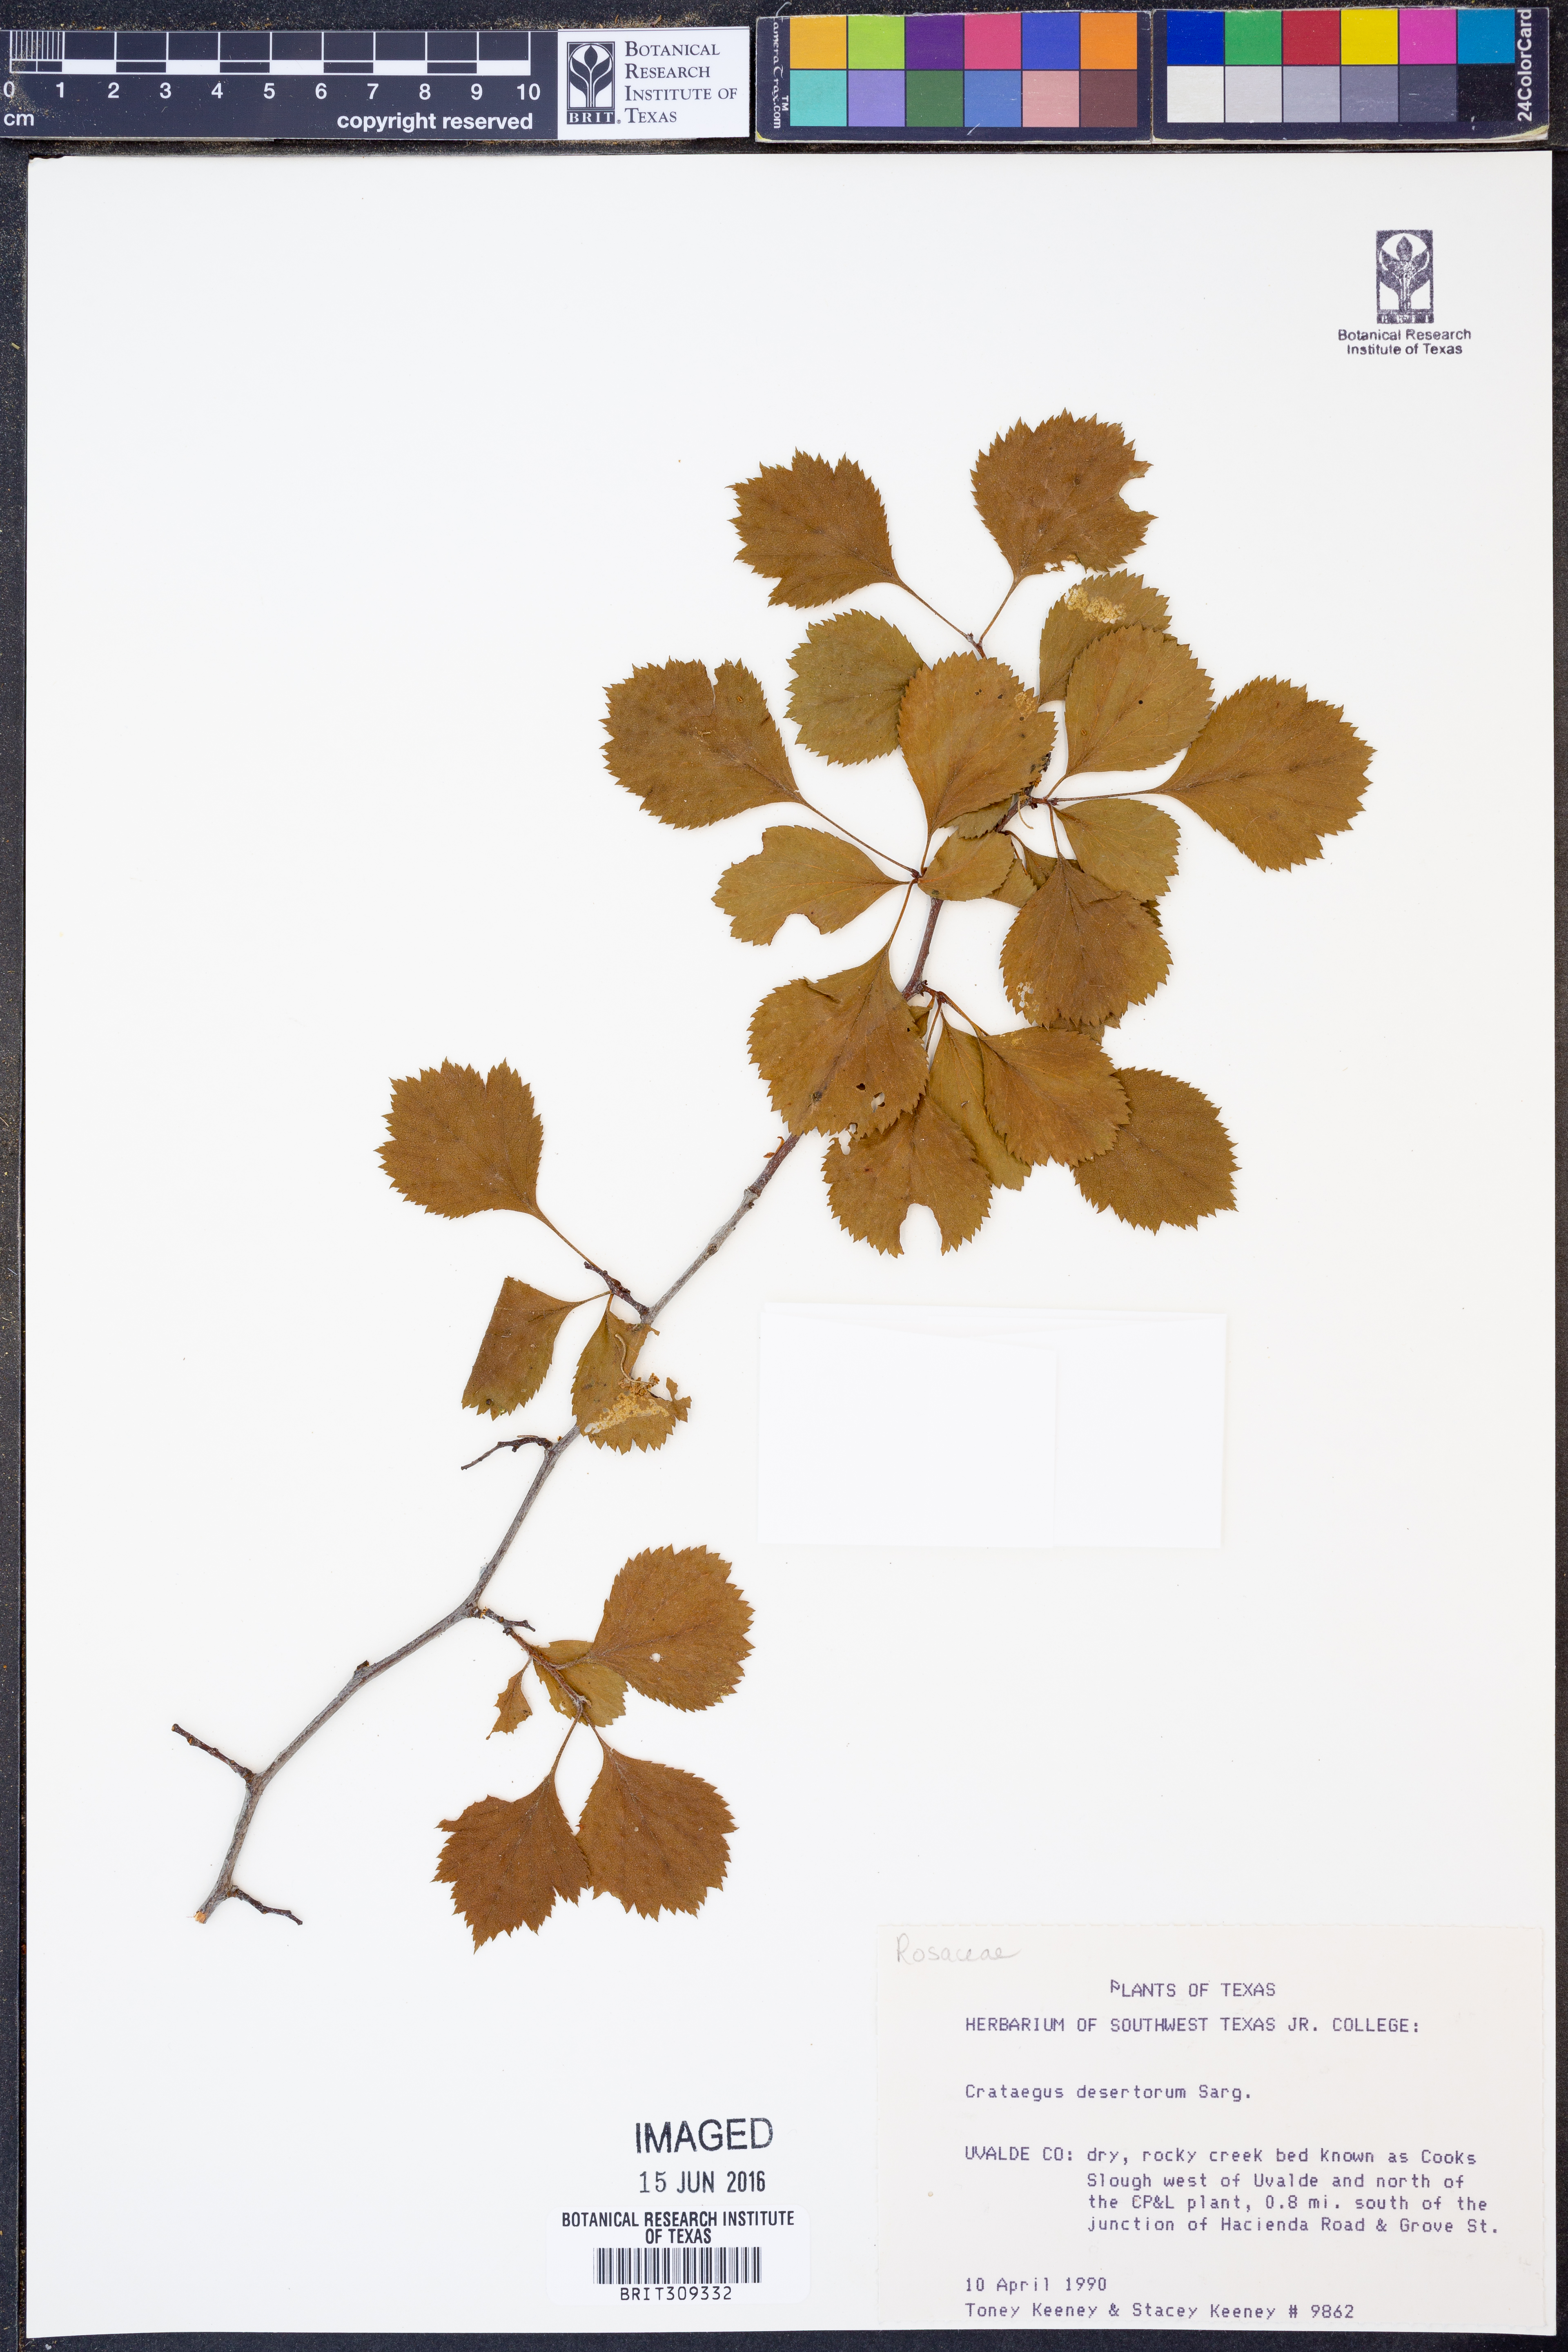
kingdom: Plantae
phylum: Tracheophyta
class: Magnoliopsida
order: Rosales
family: Rosaceae
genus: Crataegus
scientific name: Crataegus viridis
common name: Southernthorn
